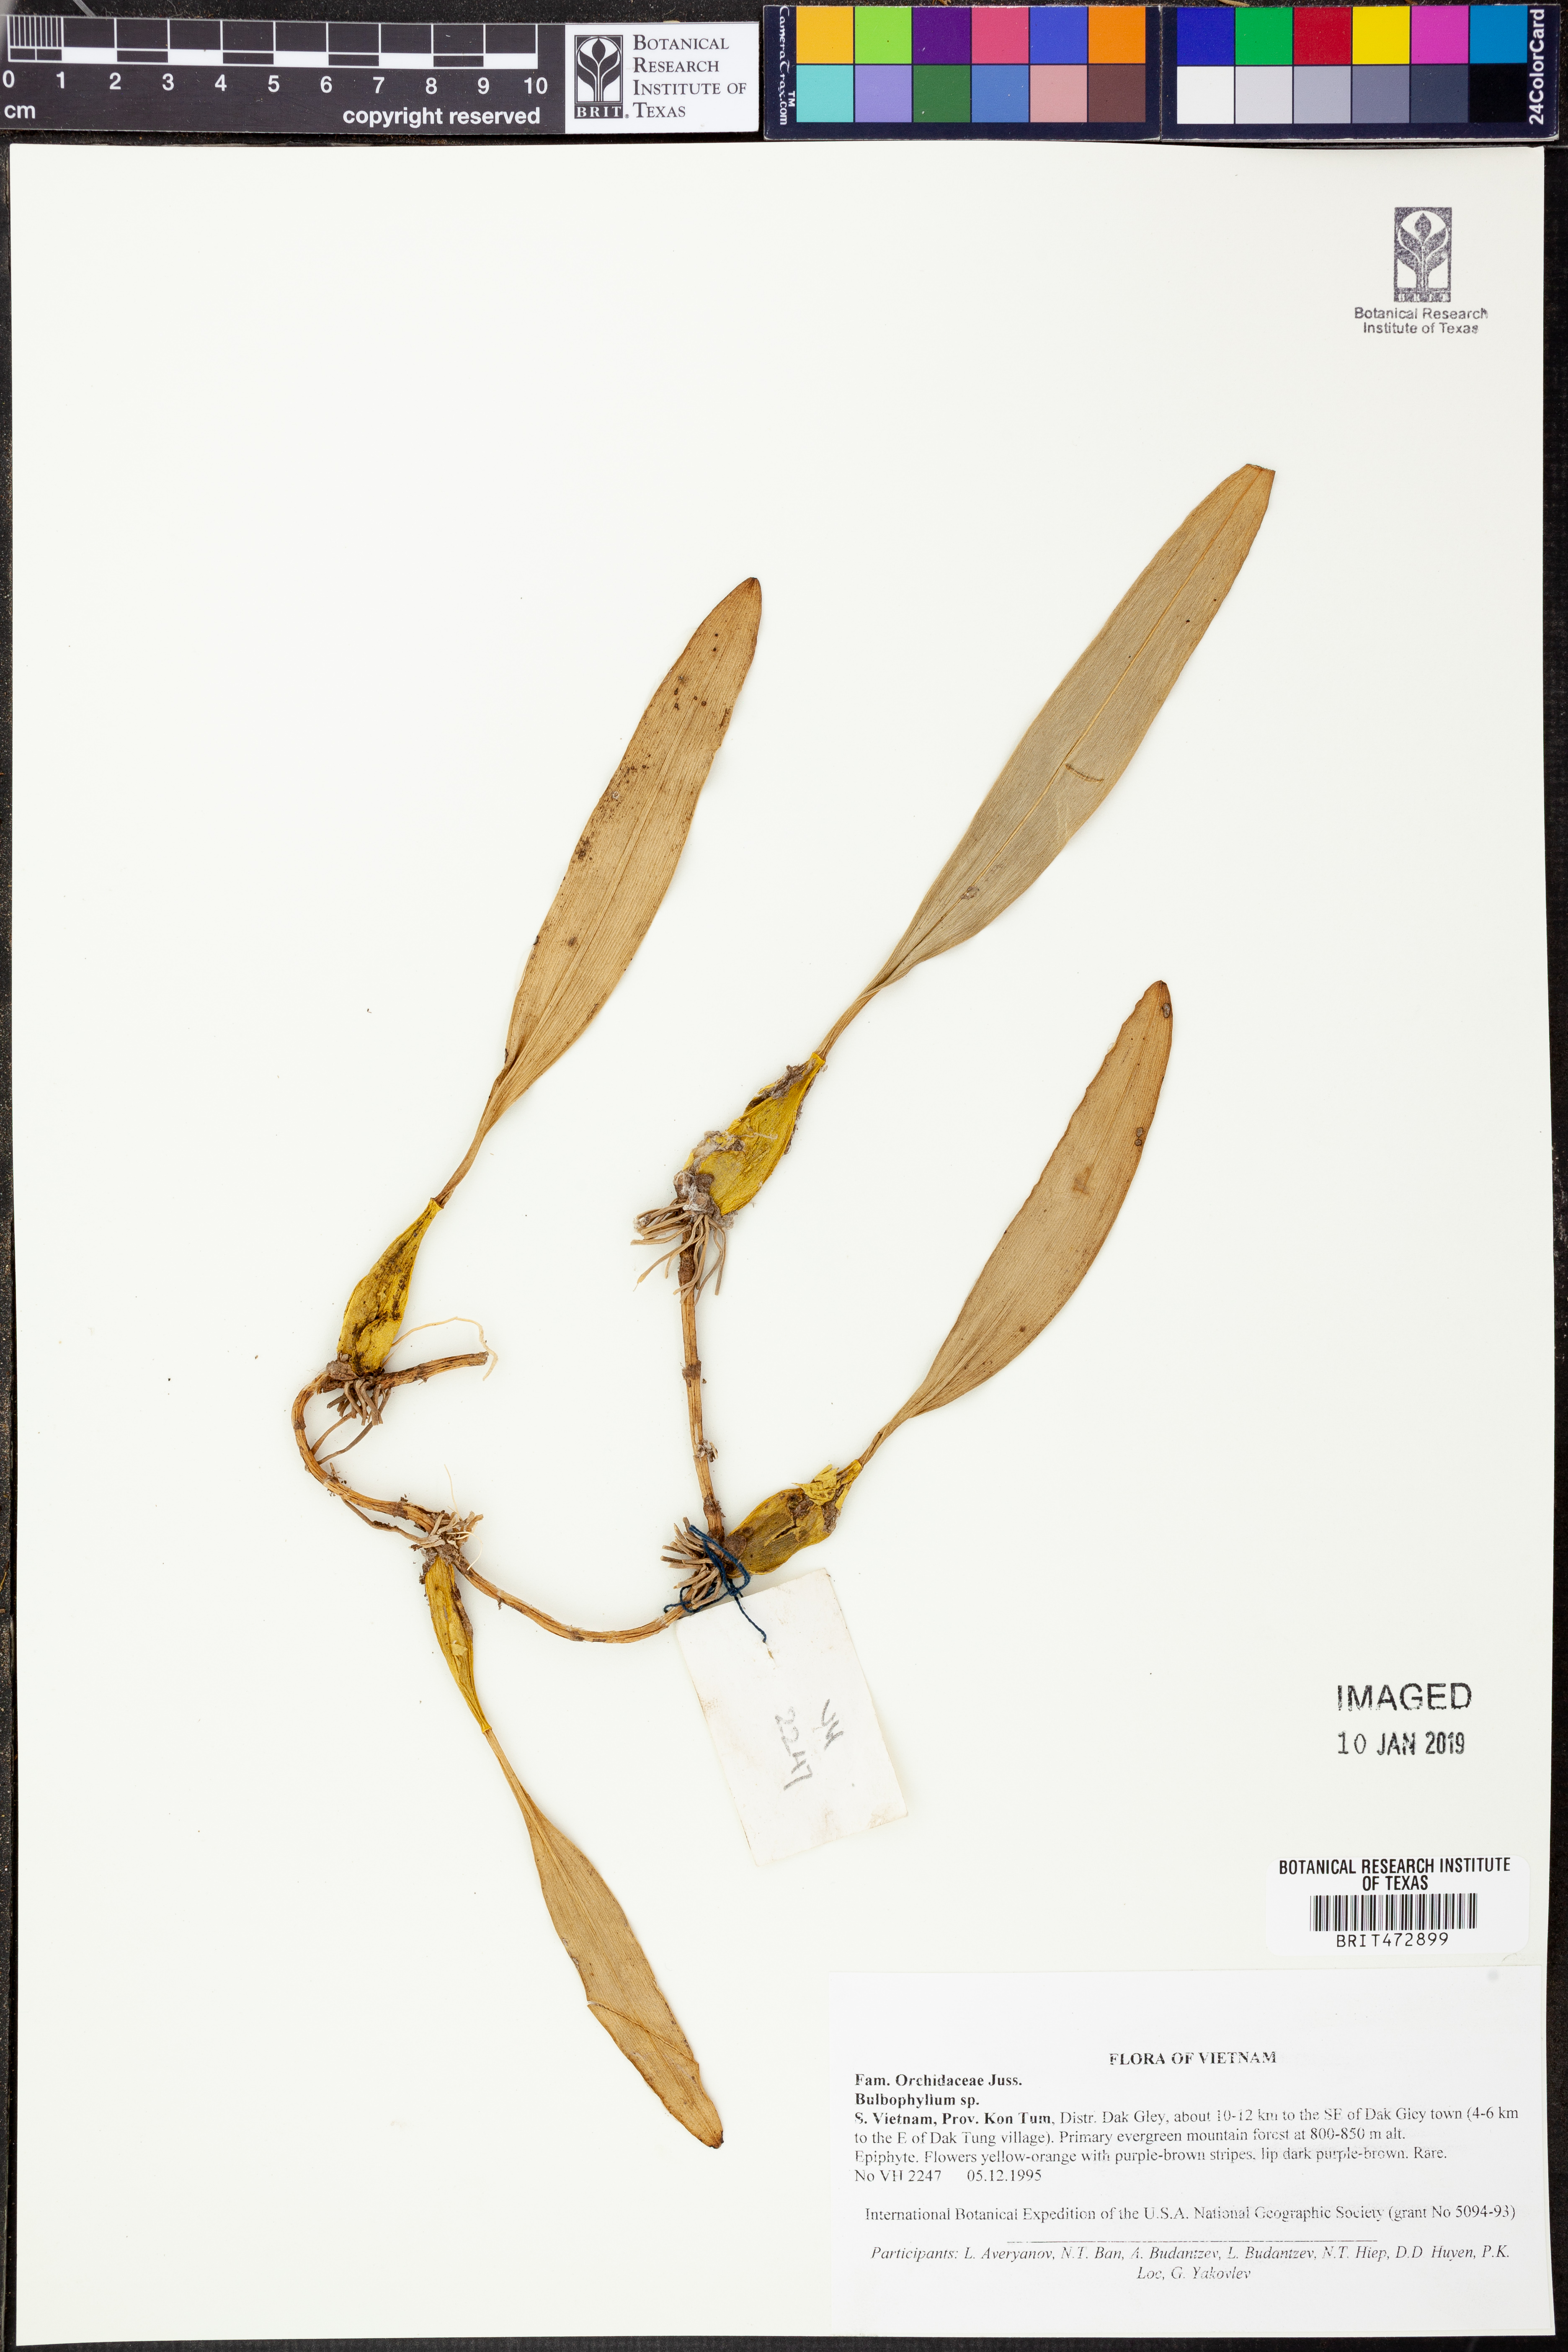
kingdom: Plantae
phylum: Tracheophyta
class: Liliopsida
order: Asparagales
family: Orchidaceae
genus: Bulbophyllum
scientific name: Bulbophyllum
